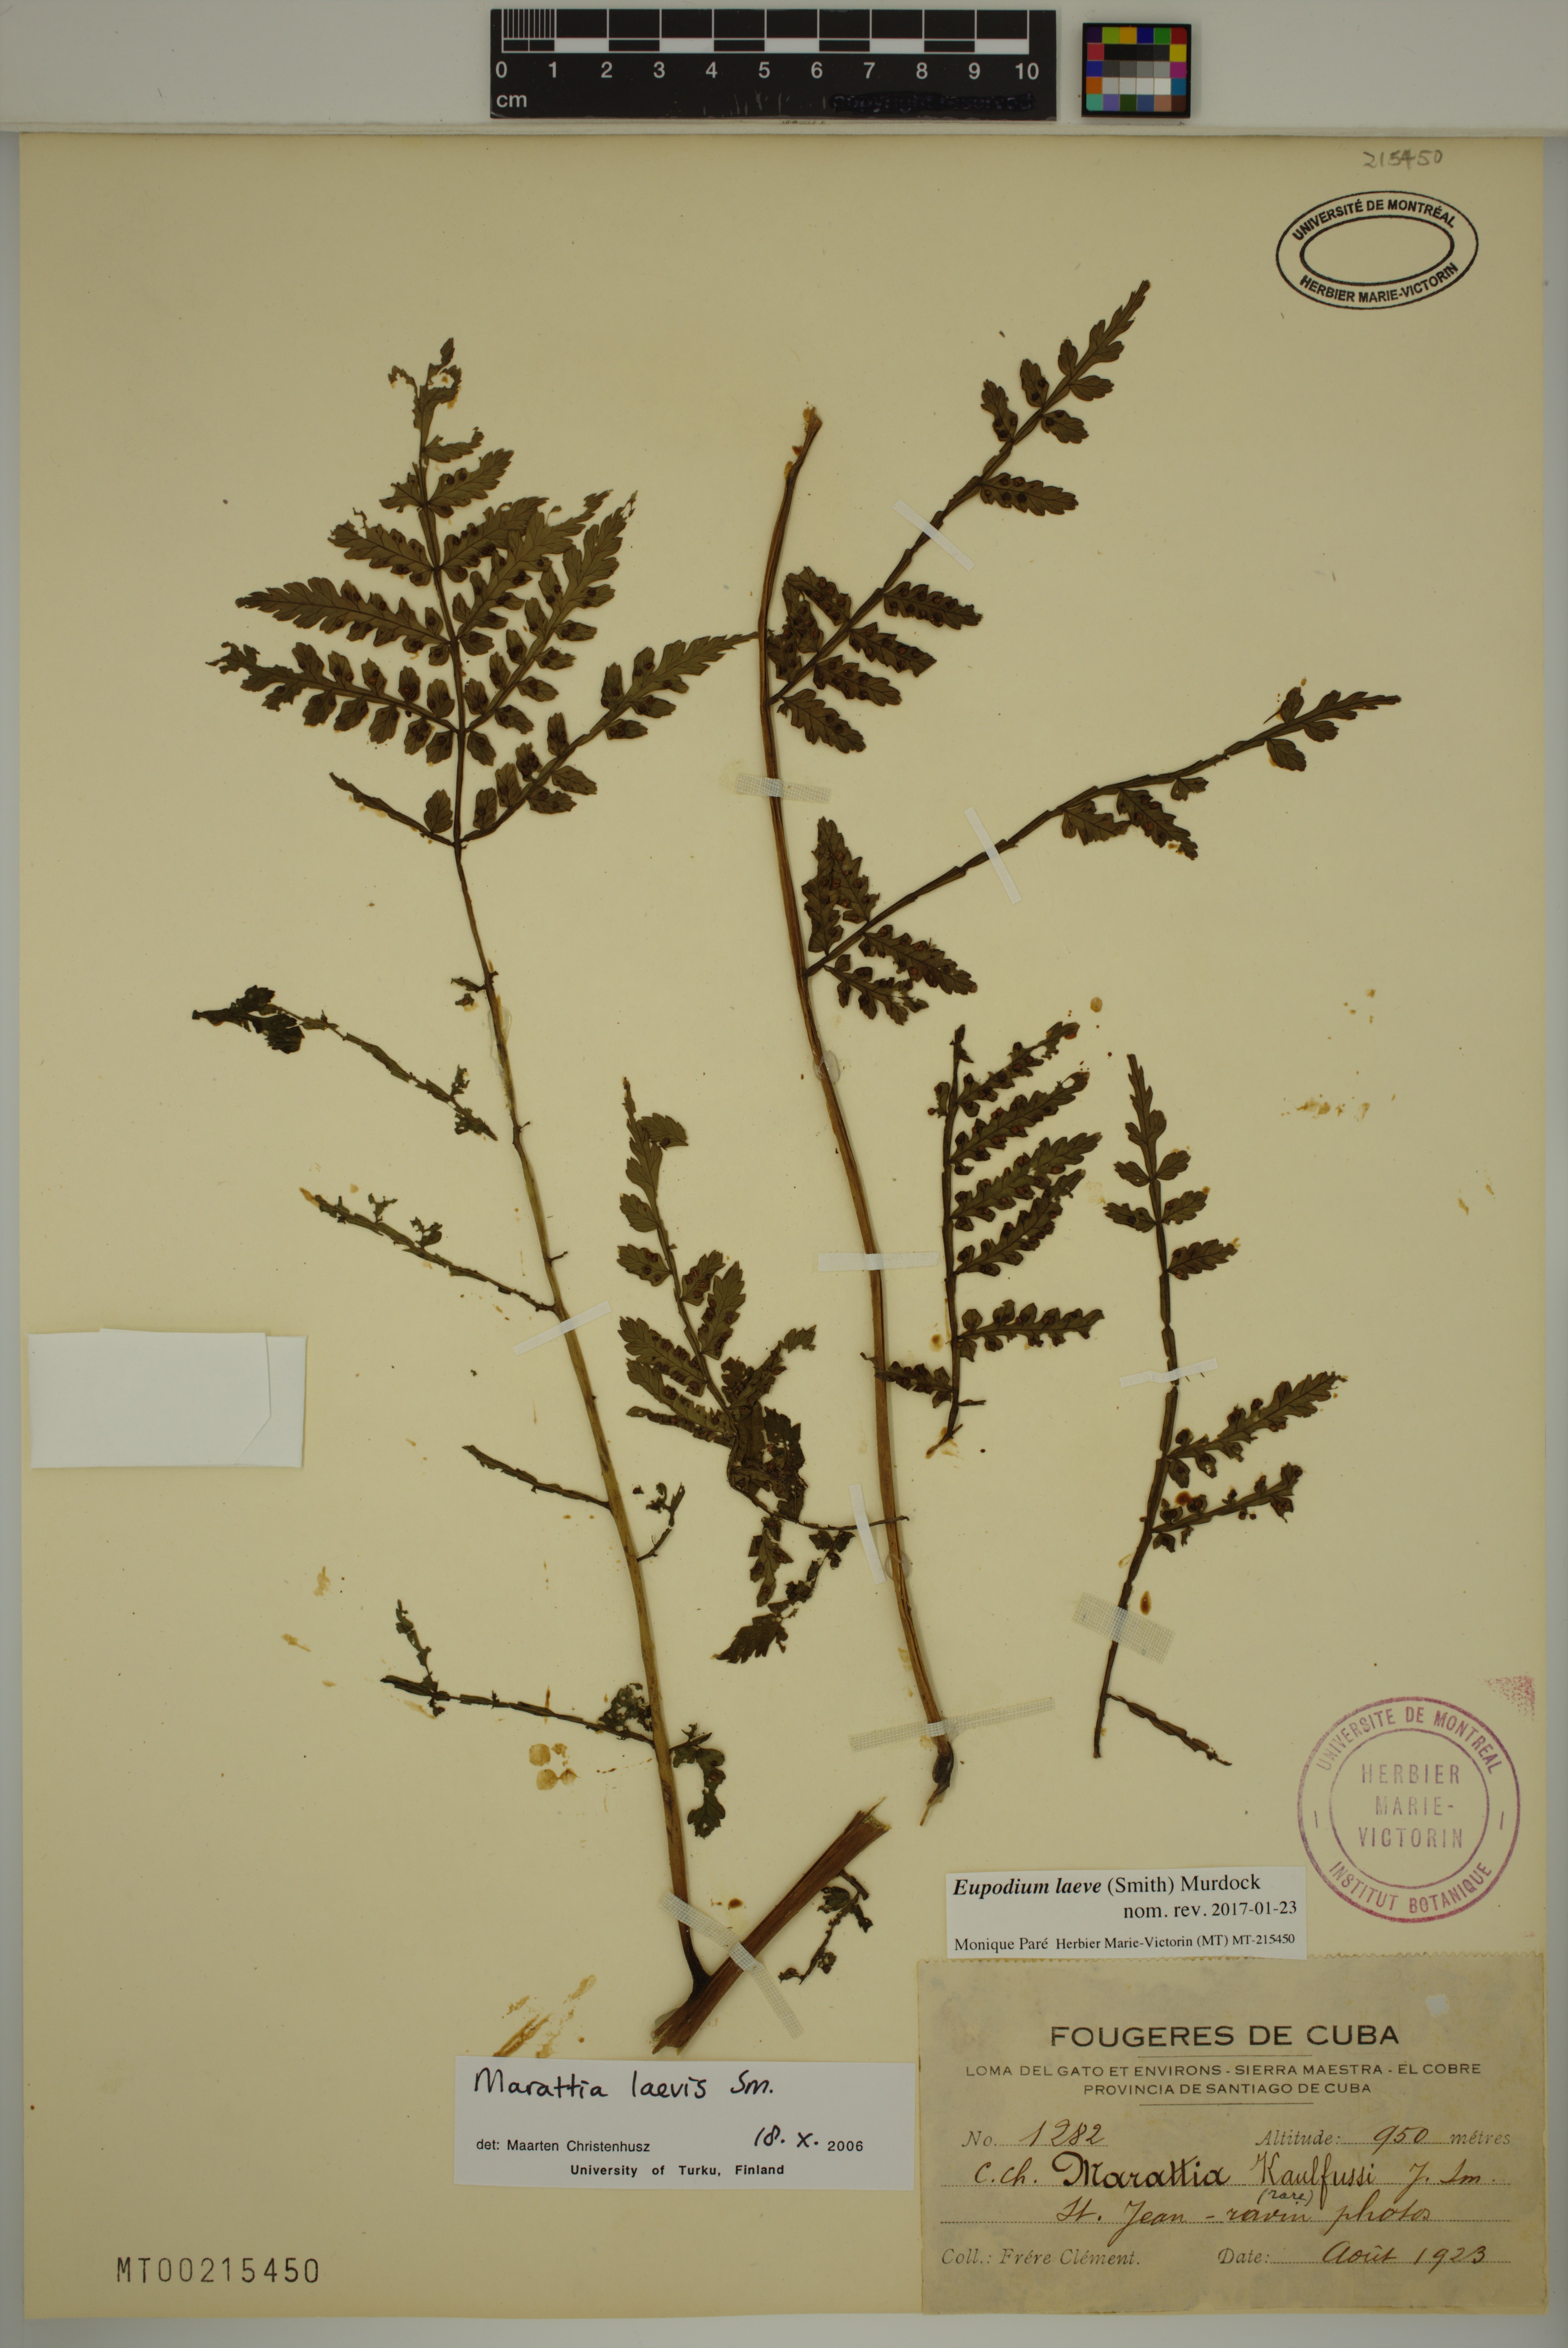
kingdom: Plantae
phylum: Tracheophyta
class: Polypodiopsida
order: Marattiales
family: Marattiaceae
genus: Eupodium
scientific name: Eupodium laeve
